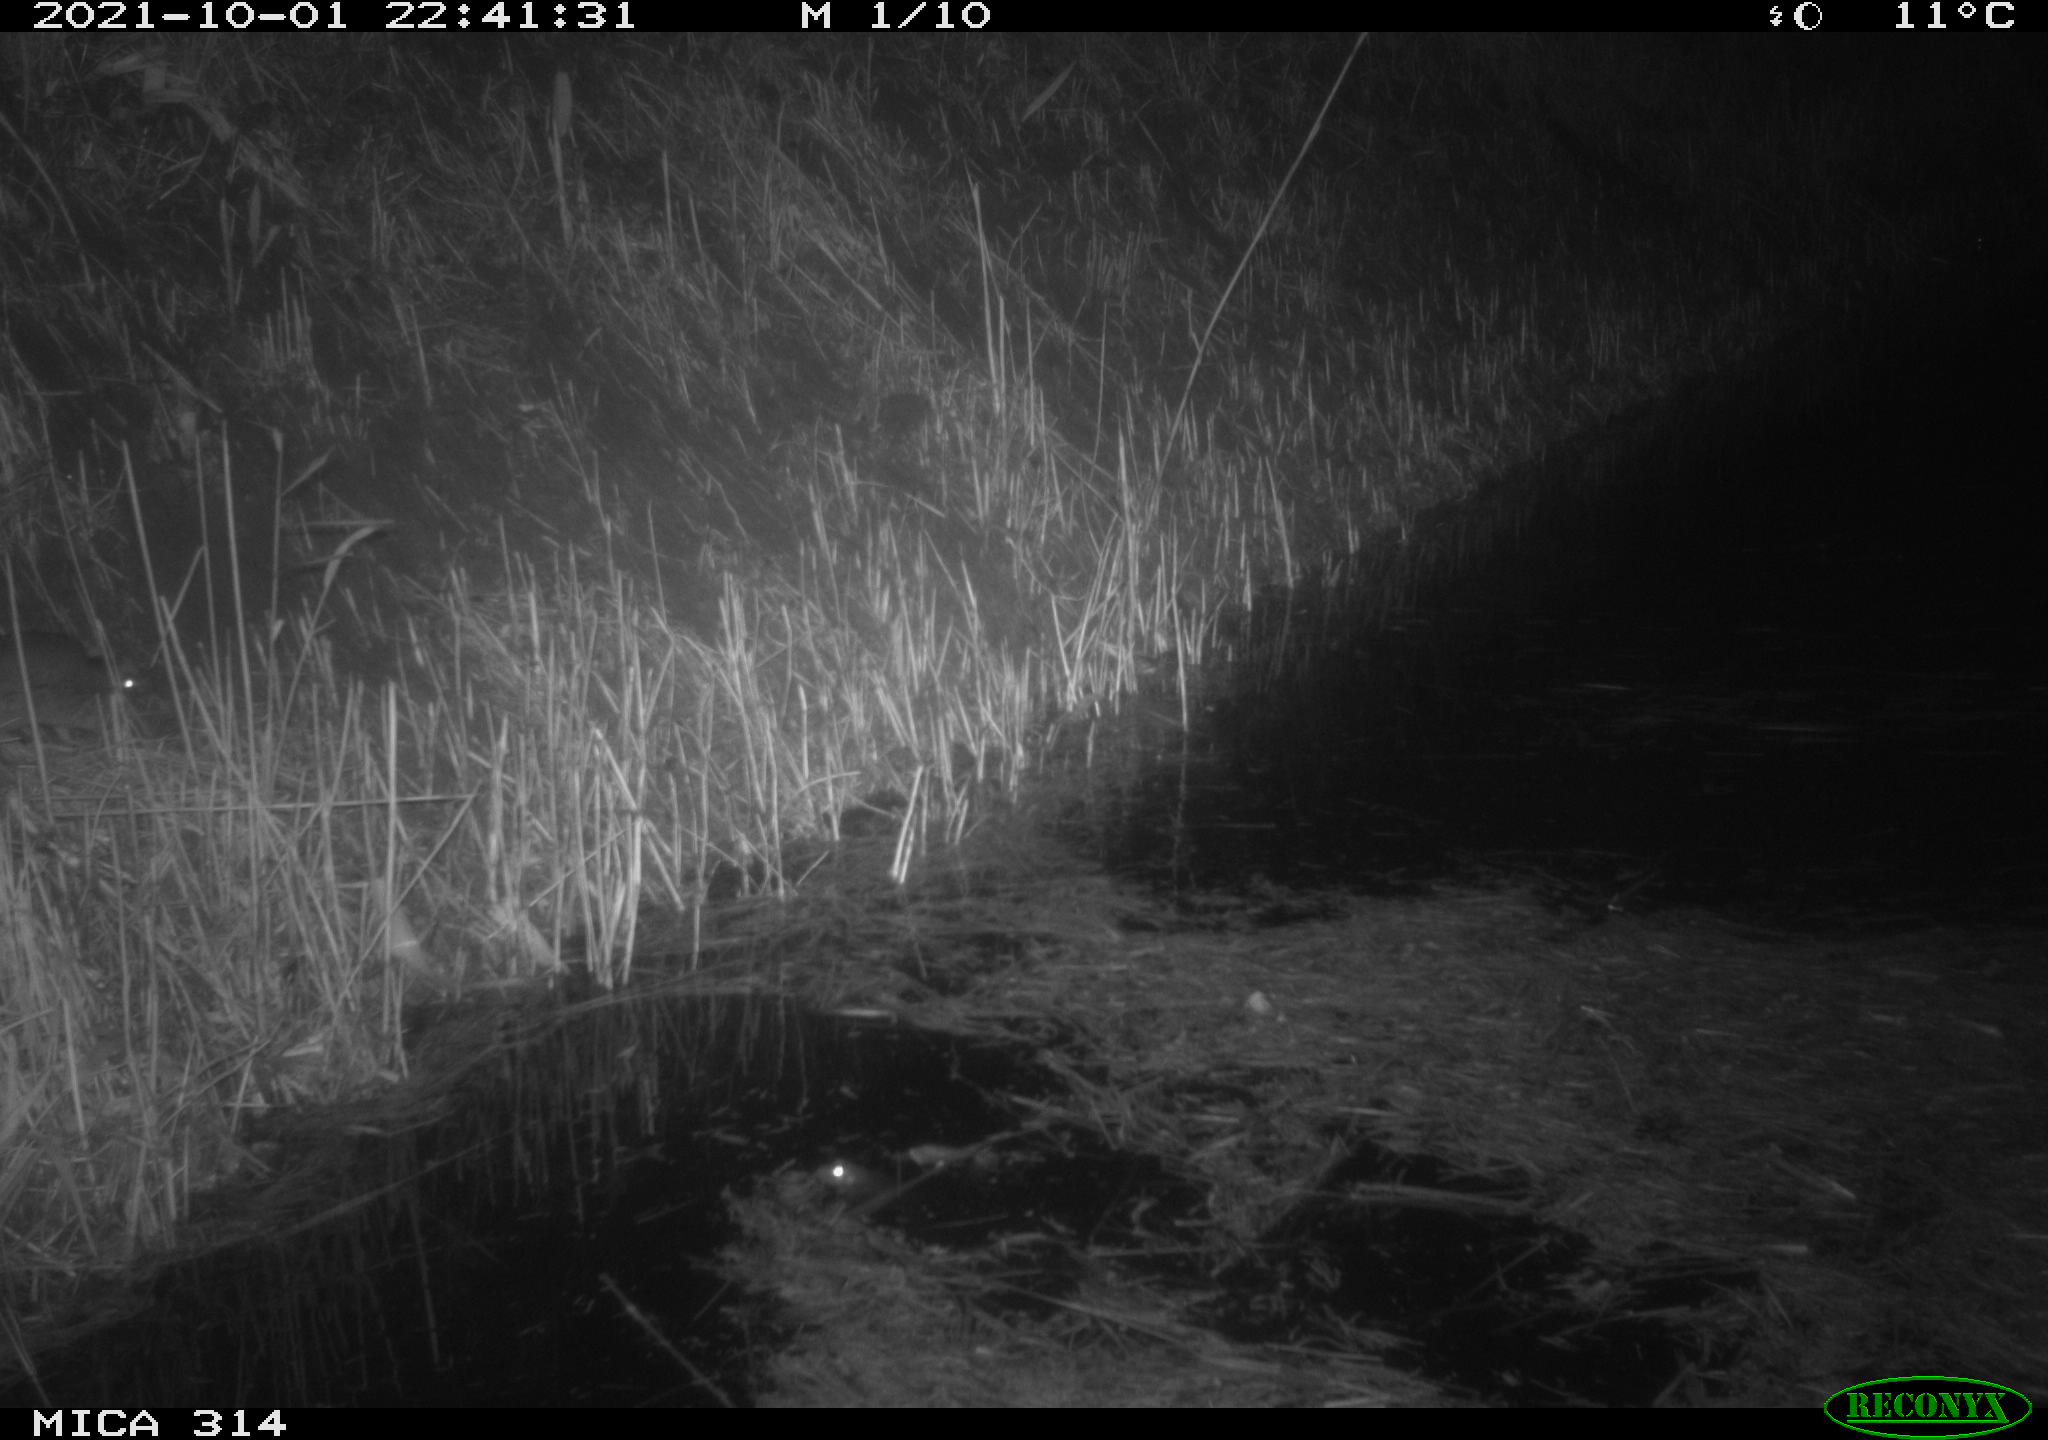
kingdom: Animalia
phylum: Chordata
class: Mammalia
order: Rodentia
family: Muridae
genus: Rattus
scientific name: Rattus norvegicus
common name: Brown rat
